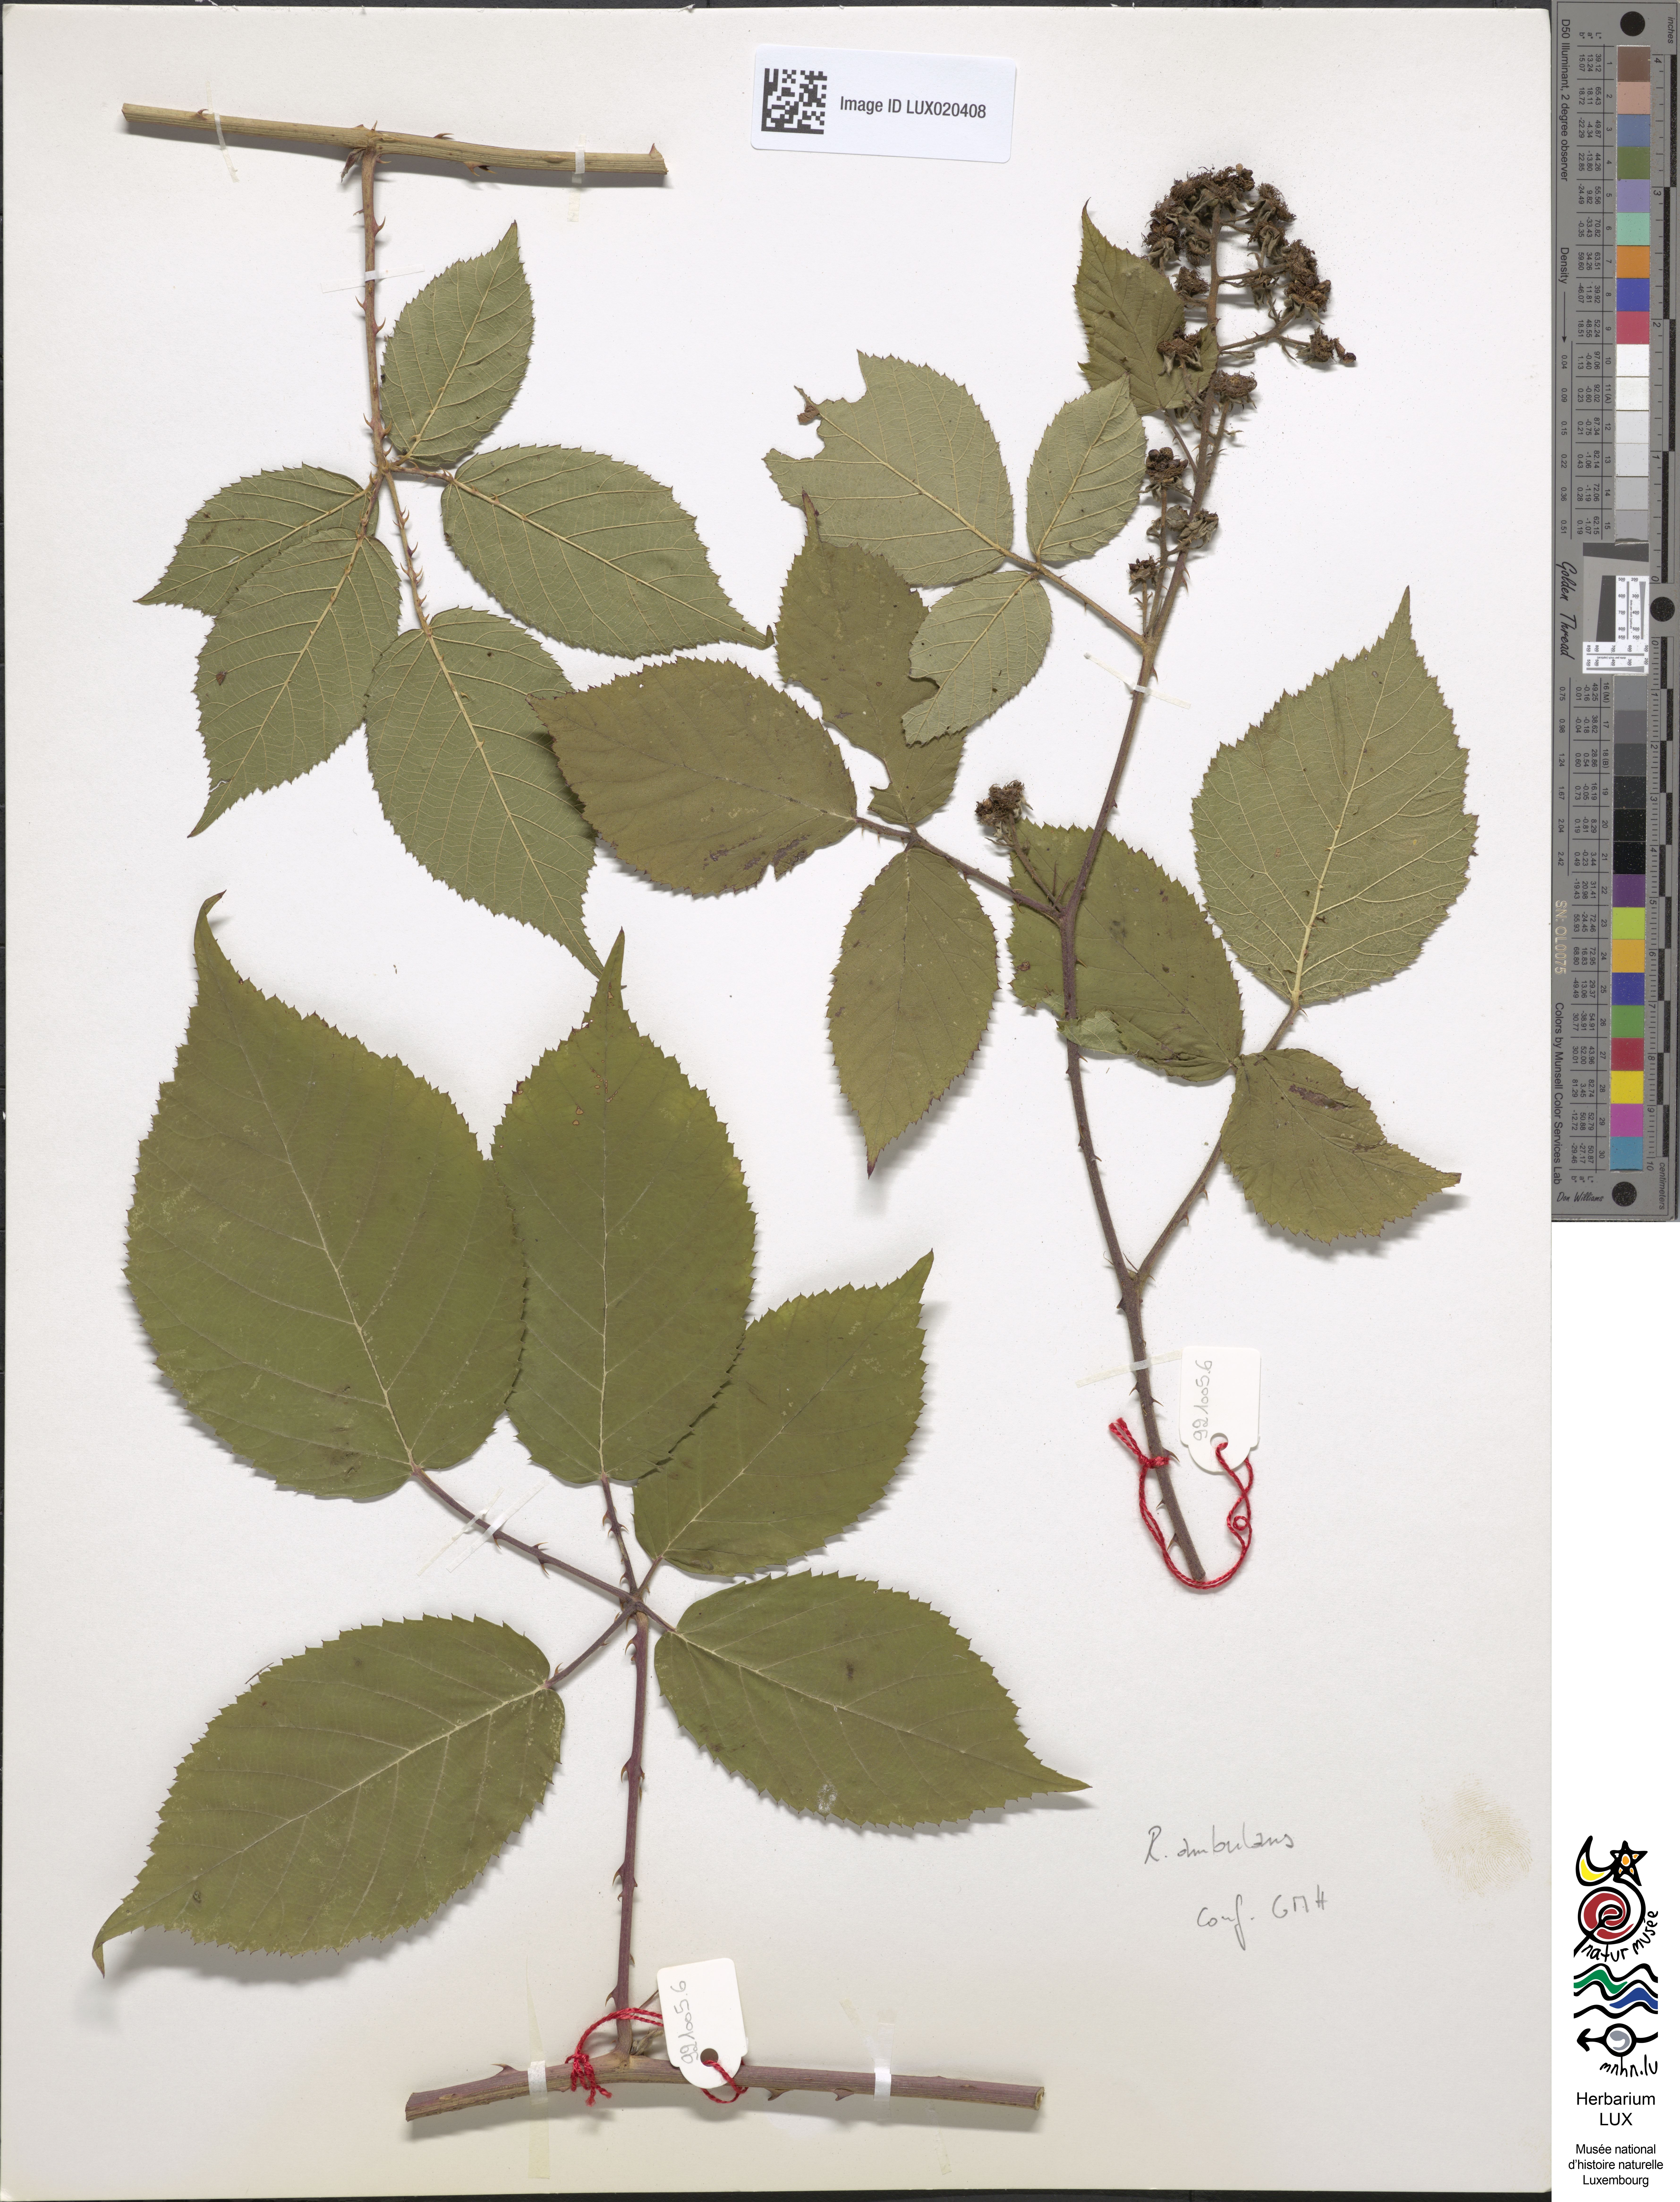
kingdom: Plantae
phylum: Tracheophyta
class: Magnoliopsida
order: Rosales
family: Rosaceae
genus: Rubus
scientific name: Rubus gremlii
